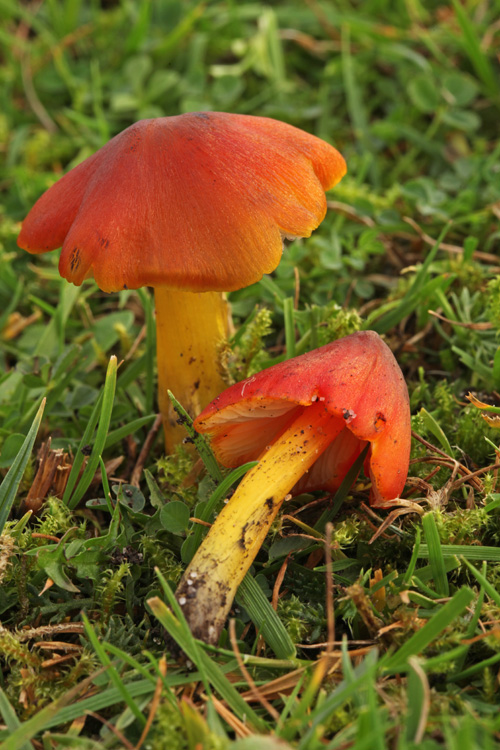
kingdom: Fungi
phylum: Basidiomycota
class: Agaricomycetes
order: Agaricales
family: Hygrophoraceae
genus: Hygrocybe
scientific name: Hygrocybe conica
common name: kegle-vokshat
